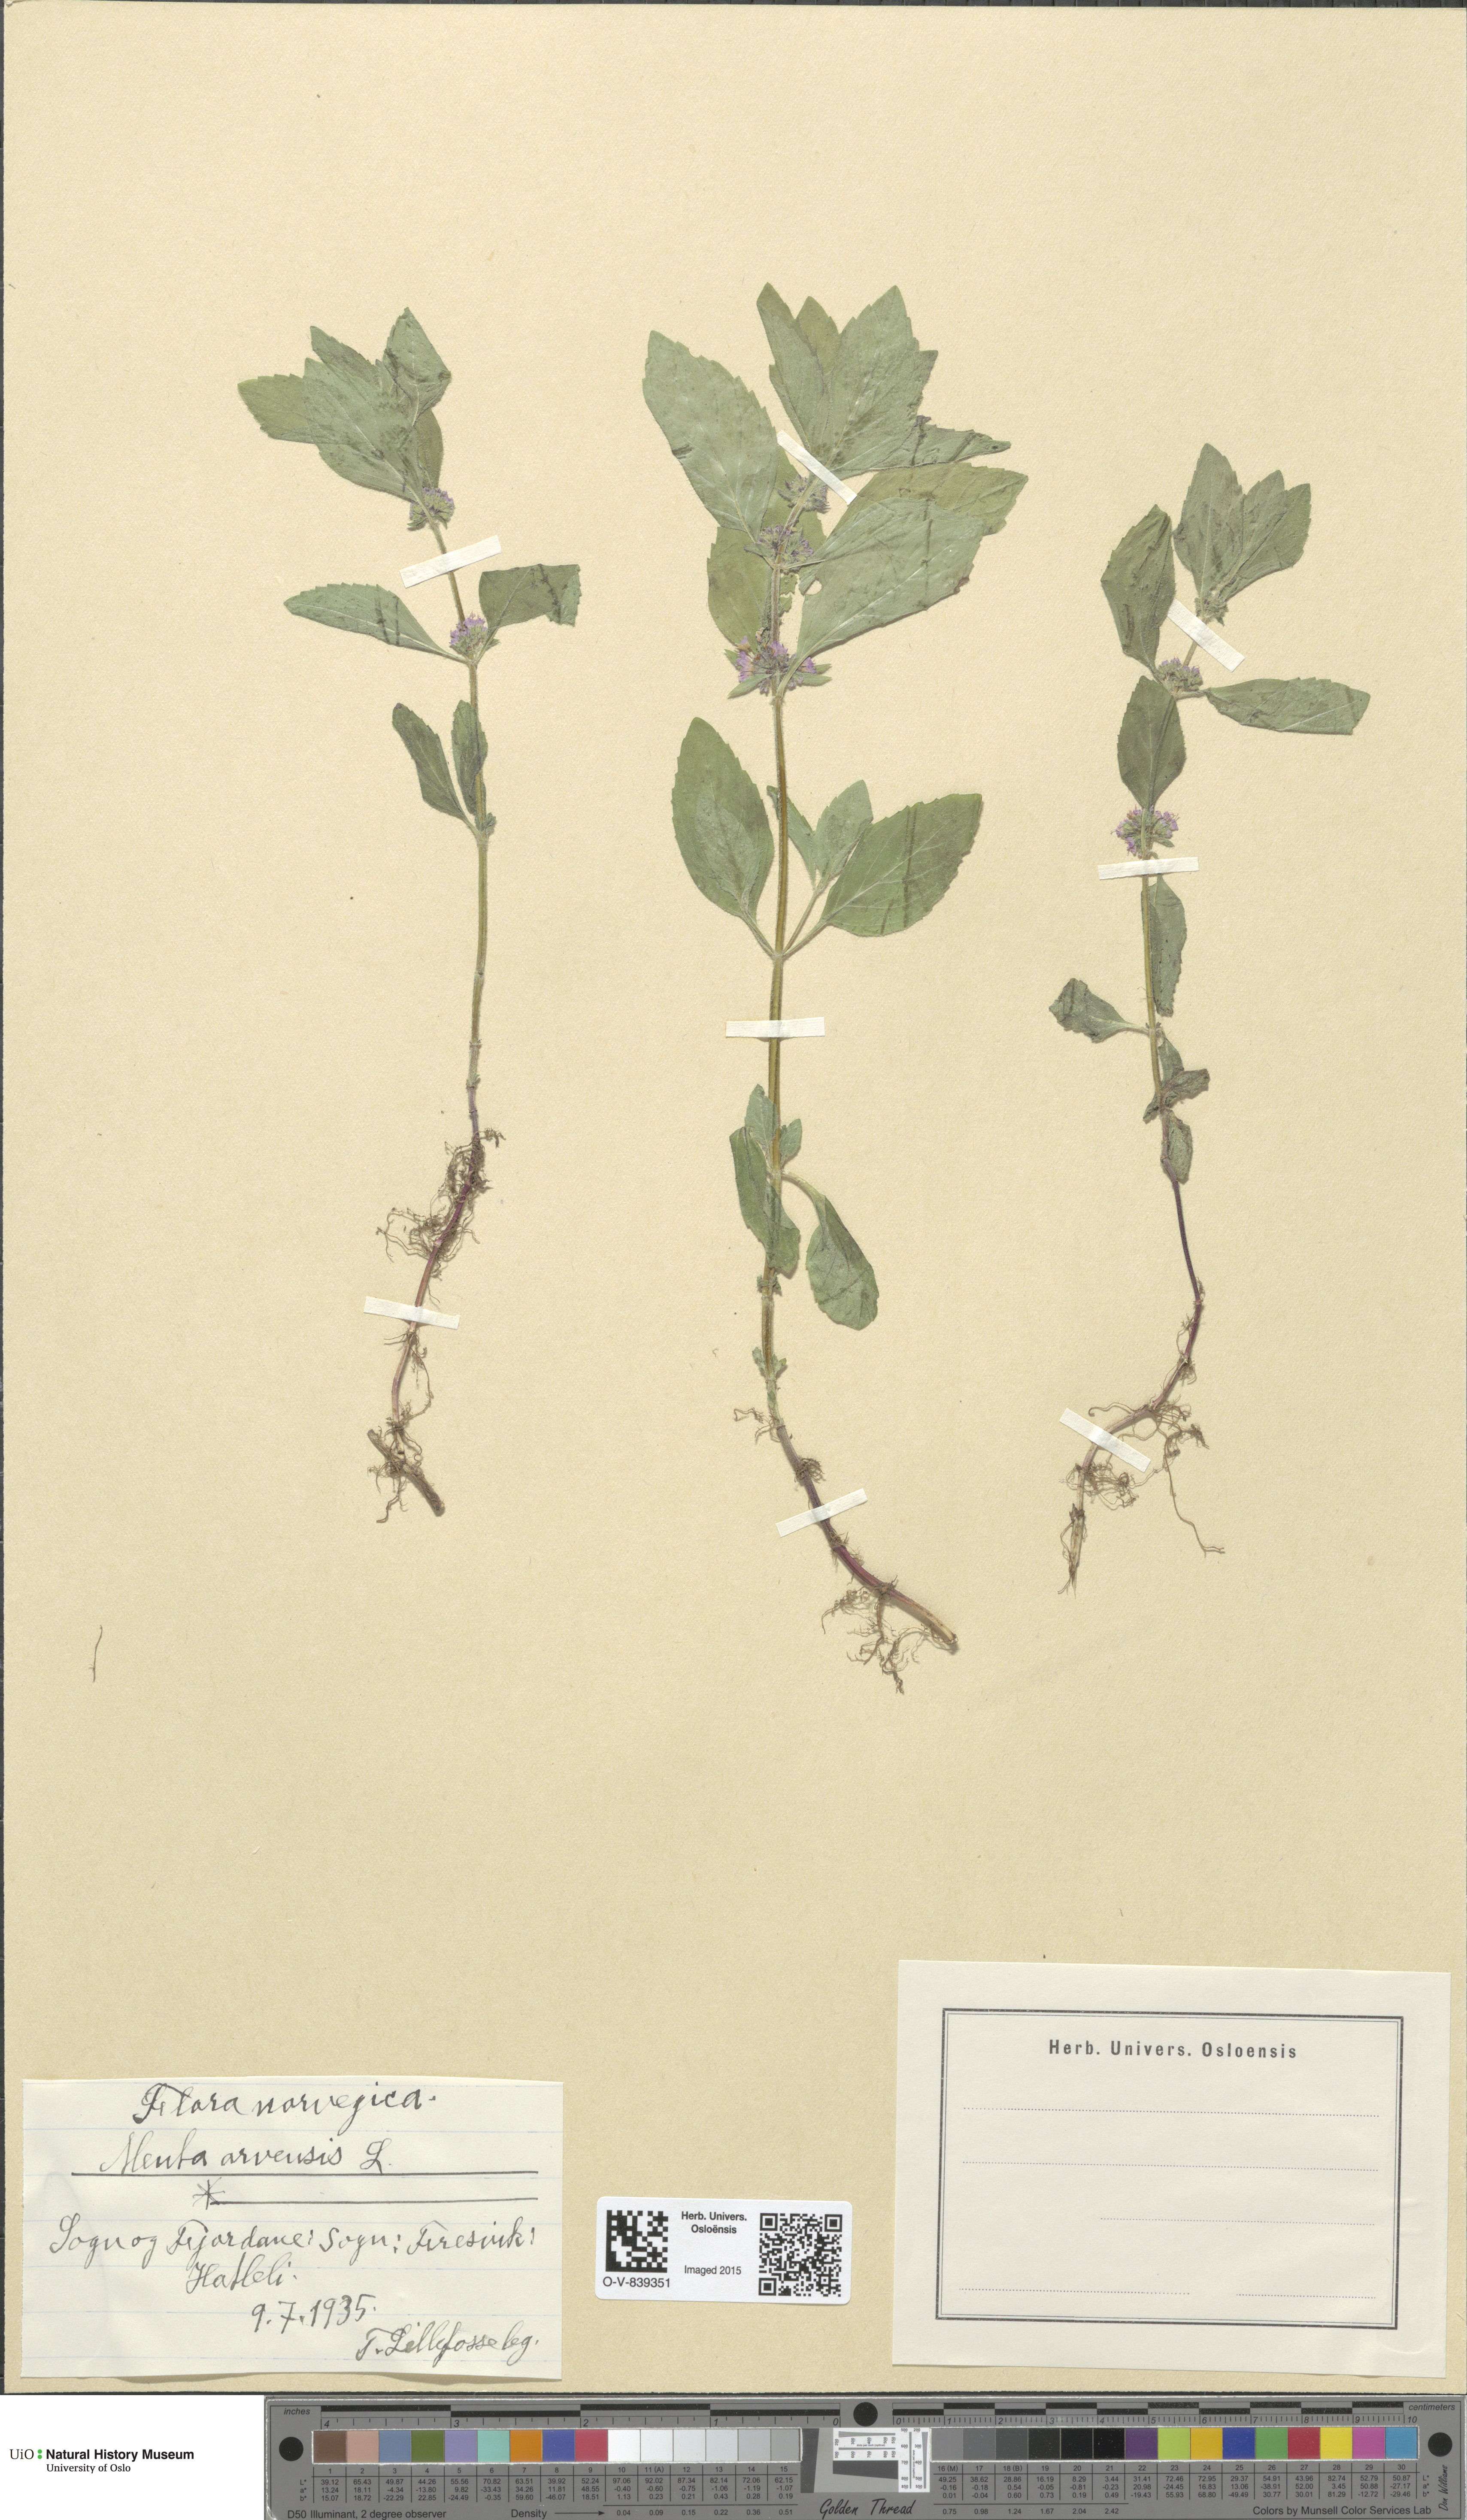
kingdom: Plantae
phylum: Tracheophyta
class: Magnoliopsida
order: Lamiales
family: Lamiaceae
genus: Mentha
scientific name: Mentha arvensis
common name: Corn mint
